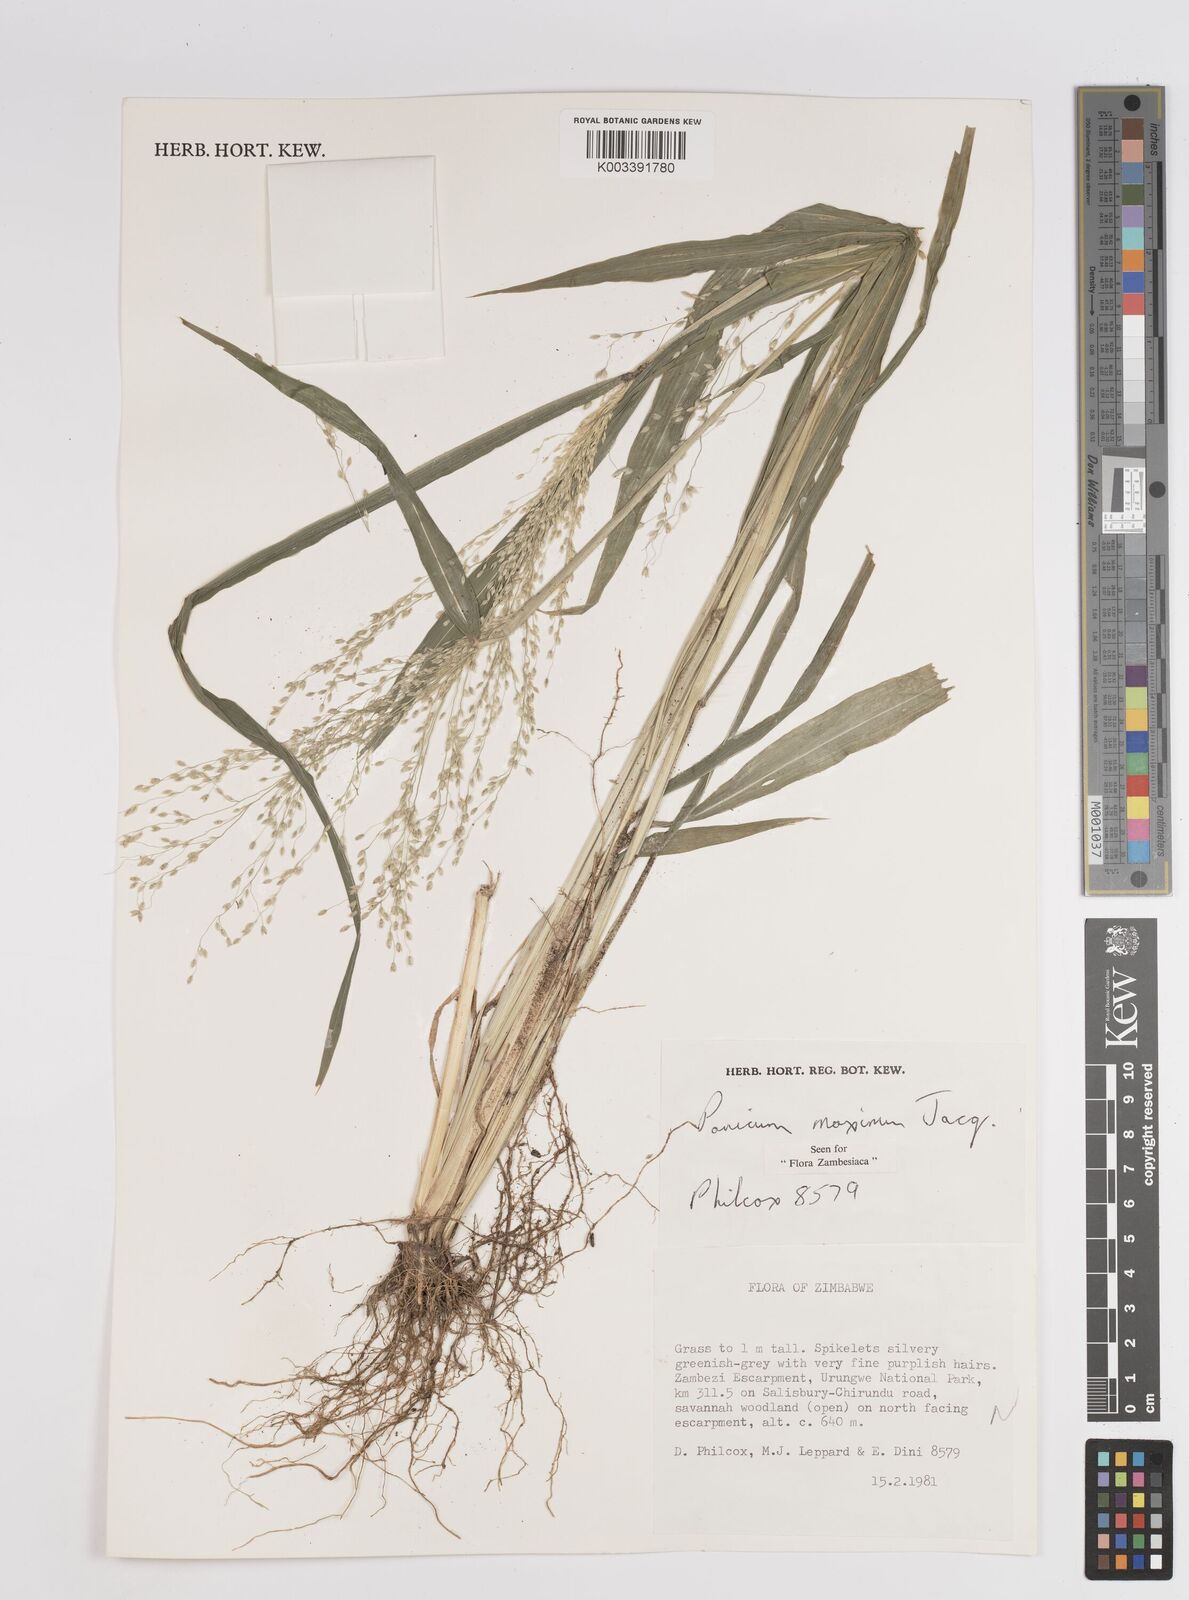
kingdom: Plantae
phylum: Tracheophyta
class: Liliopsida
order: Poales
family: Poaceae
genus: Megathyrsus
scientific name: Megathyrsus maximus
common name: Guineagrass
